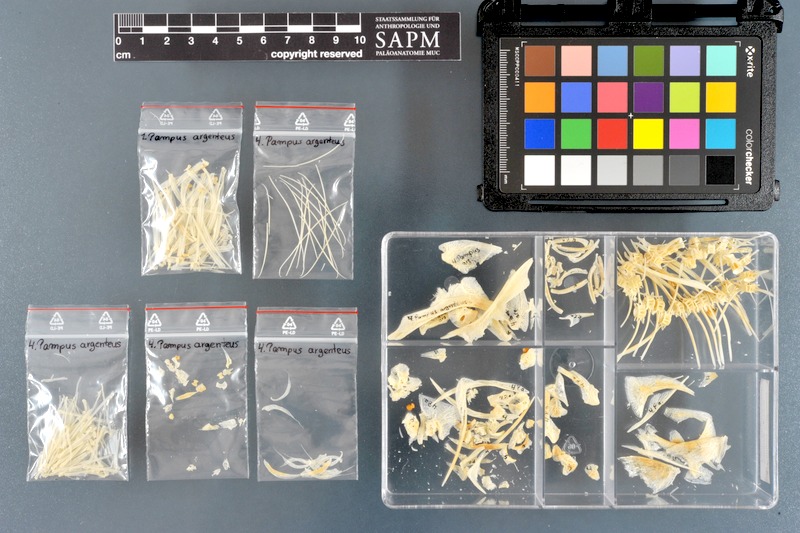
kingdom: Animalia
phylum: Chordata
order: Perciformes
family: Stromateidae
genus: Pampus
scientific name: Pampus argenteus
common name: Silver pomfret
